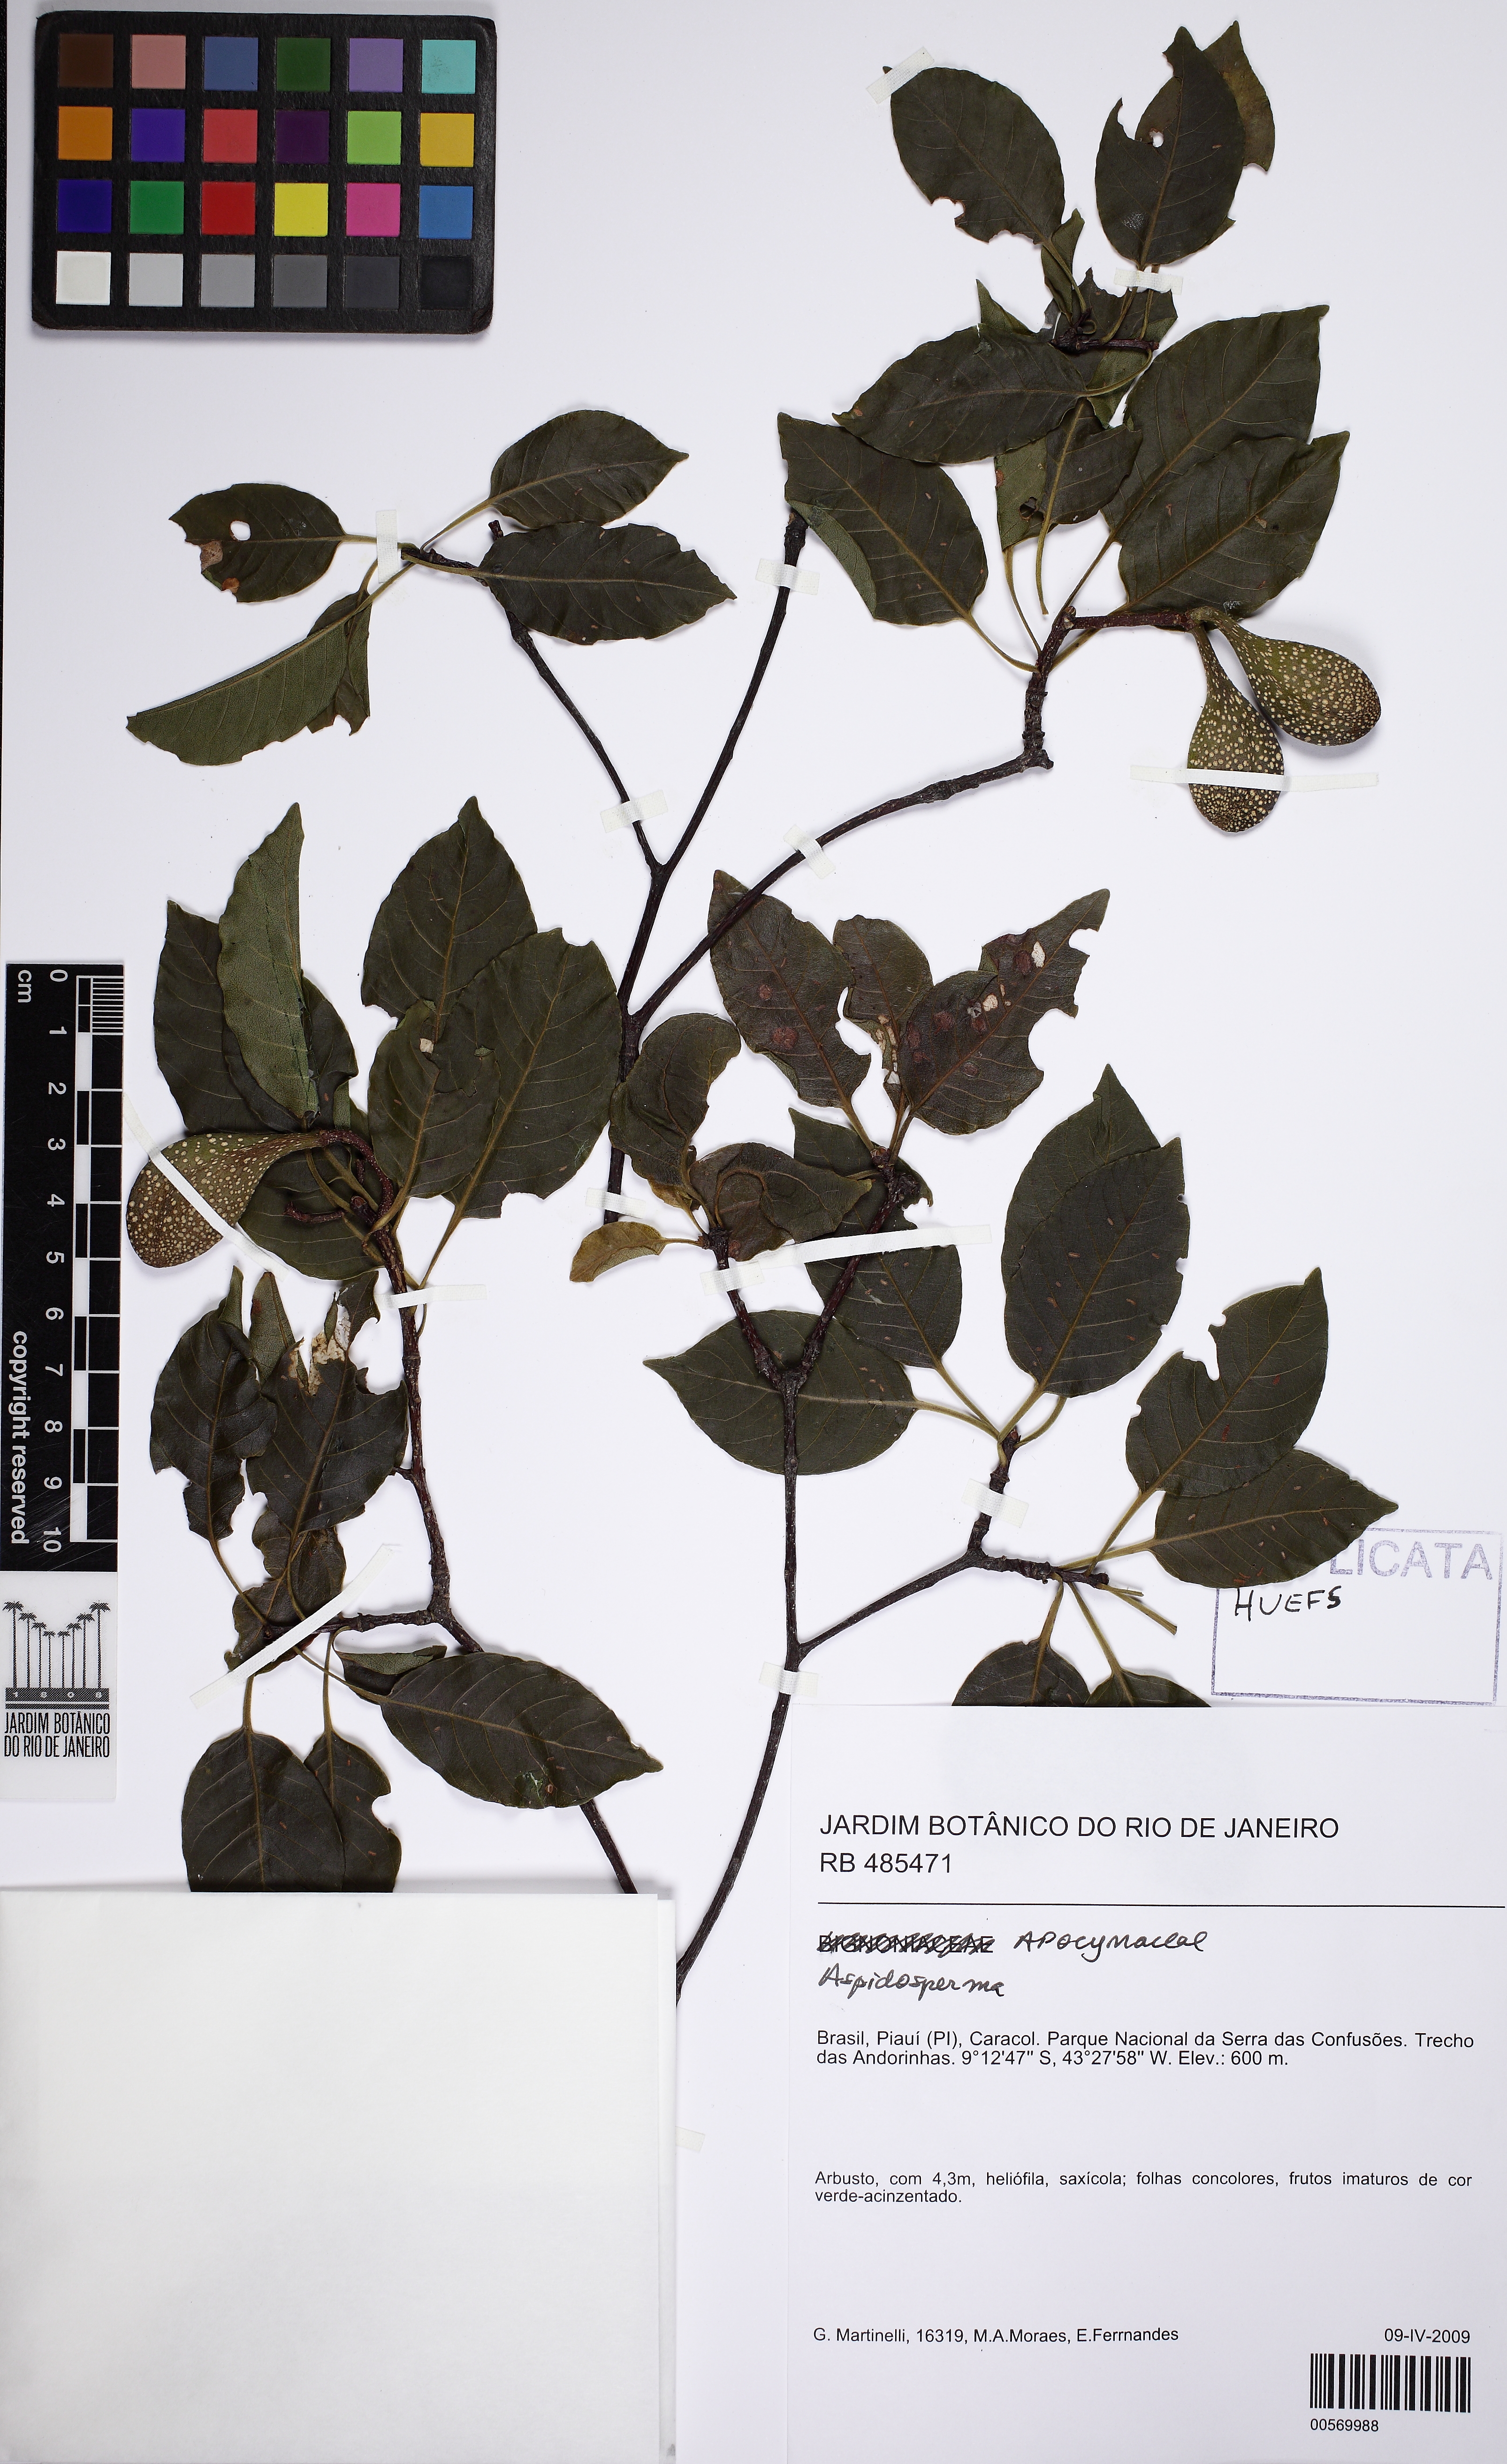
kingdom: Plantae
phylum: Tracheophyta
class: Magnoliopsida
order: Gentianales
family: Apocynaceae
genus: Aspidosperma
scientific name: Aspidosperma multiflorum
